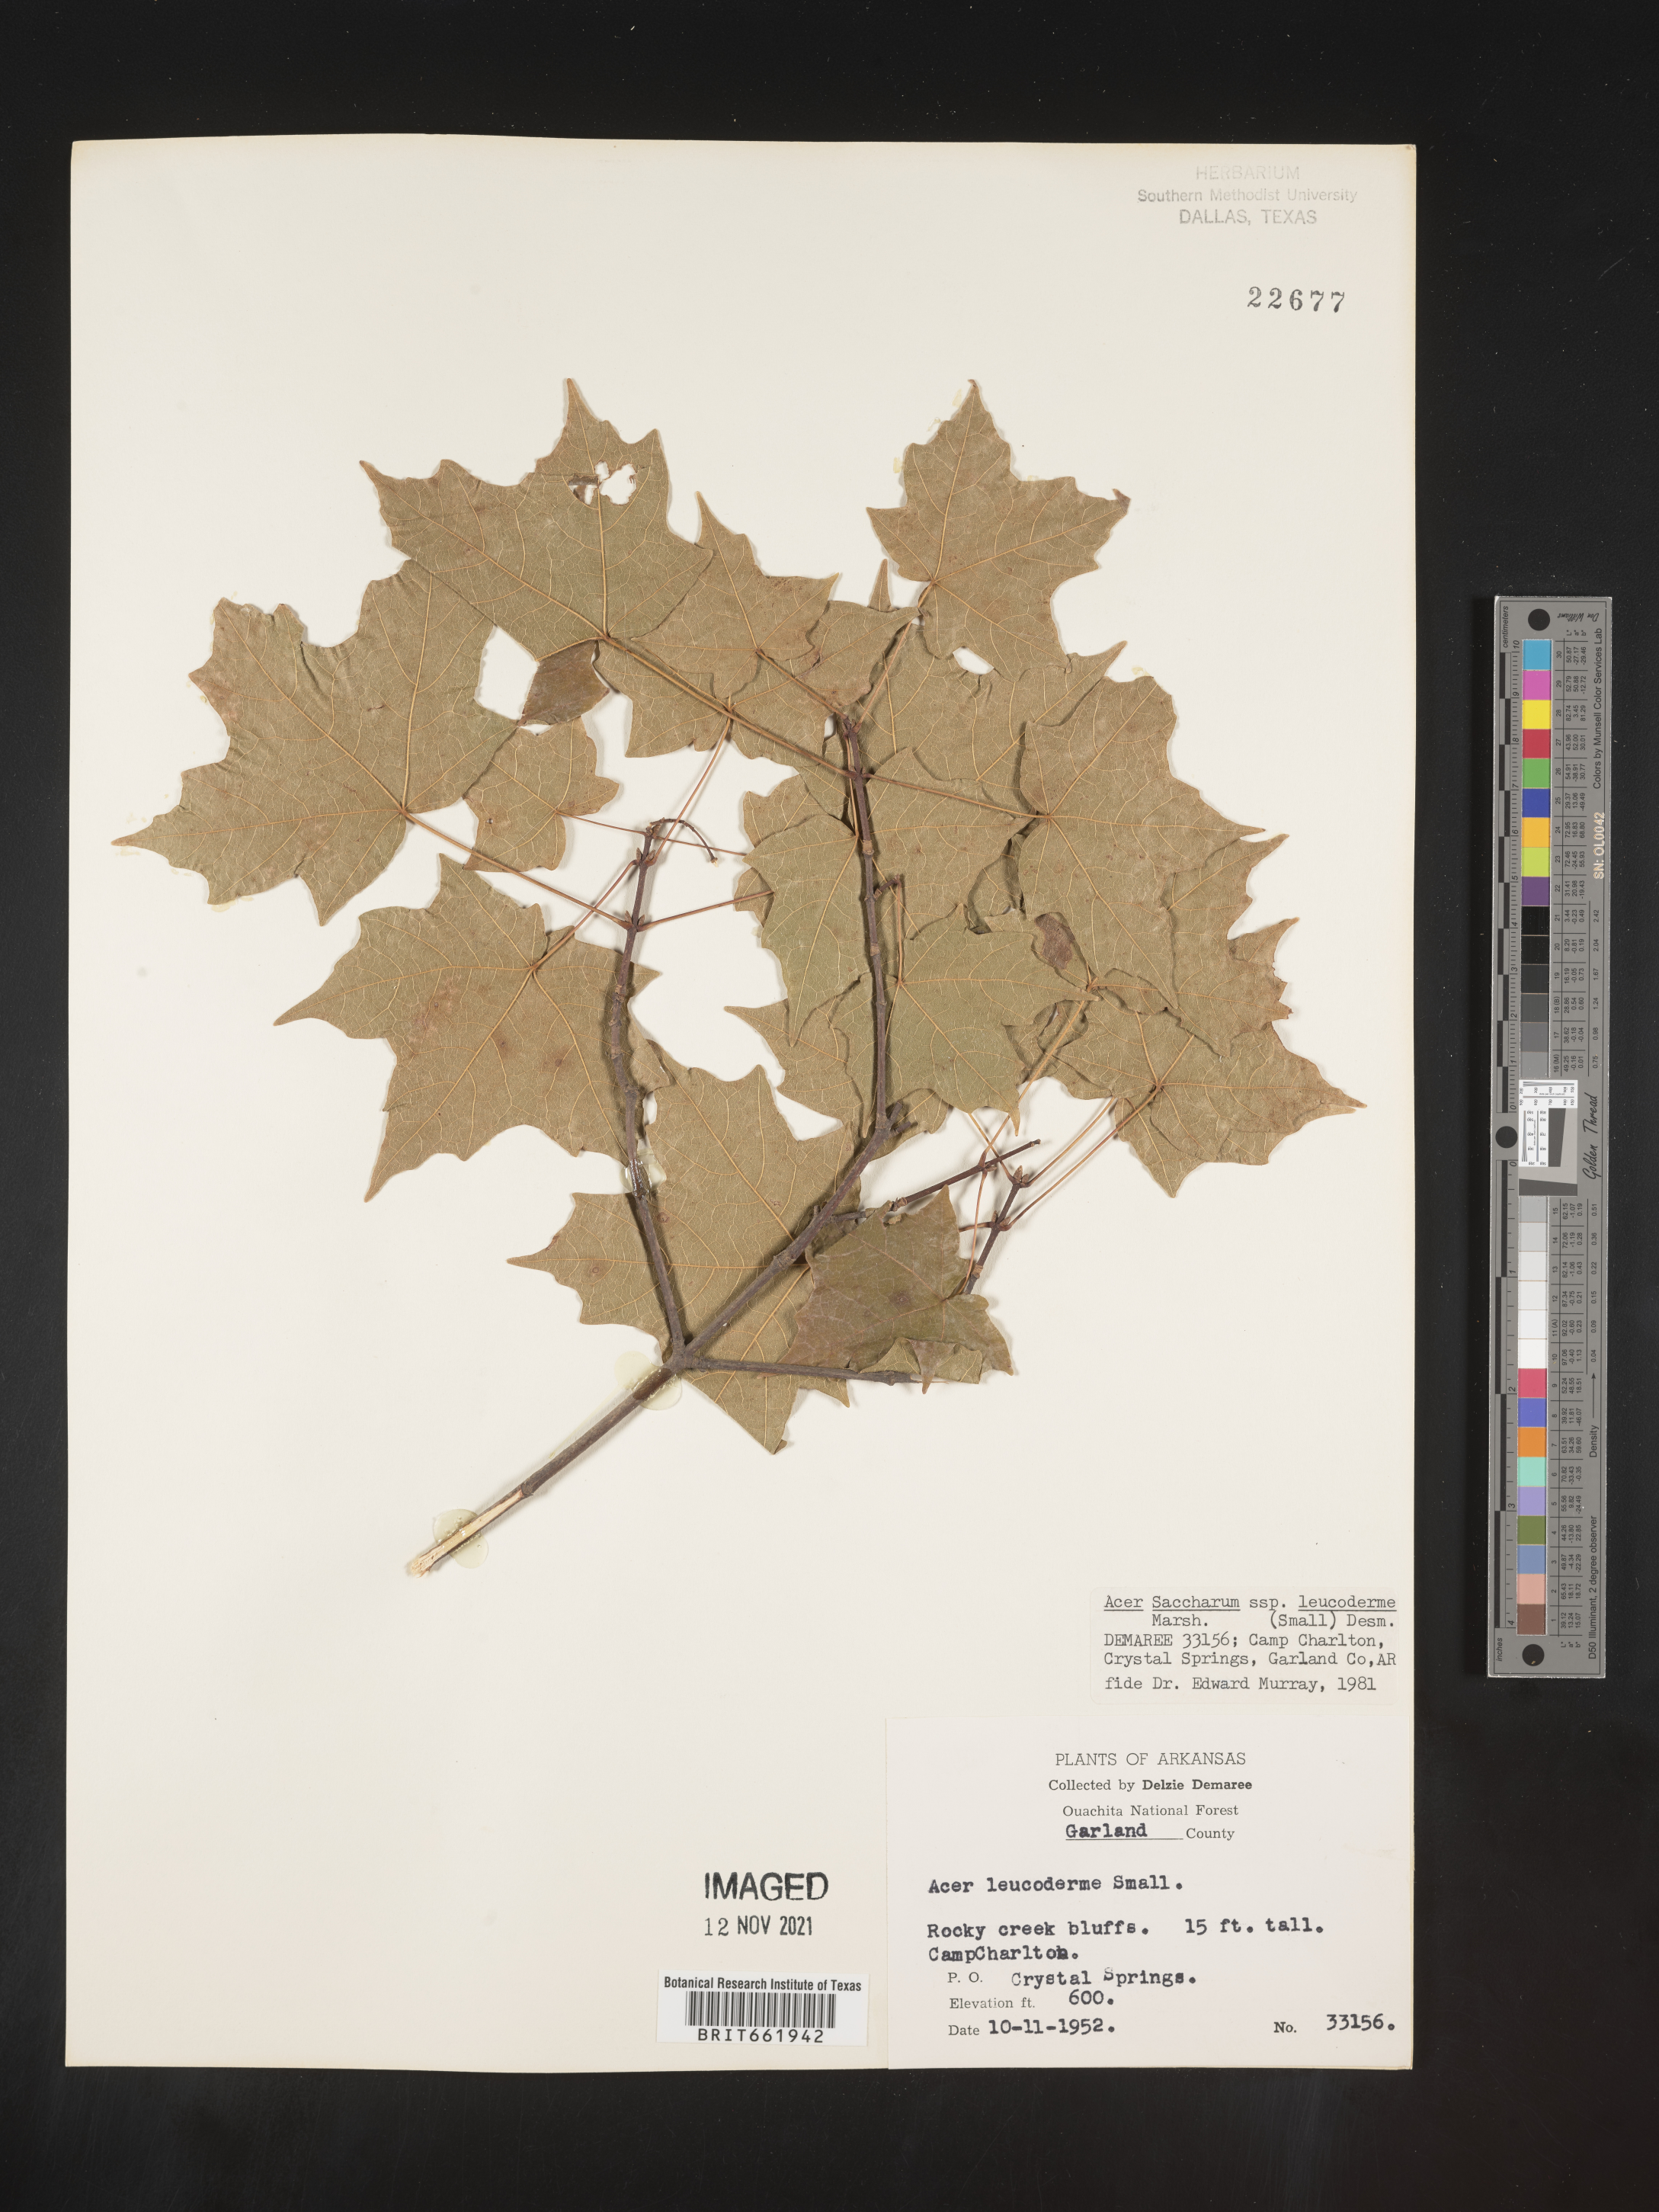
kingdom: Plantae
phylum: Tracheophyta
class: Magnoliopsida
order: Sapindales
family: Sapindaceae
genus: Acer
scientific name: Acer leucoderme
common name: Chalk maple
